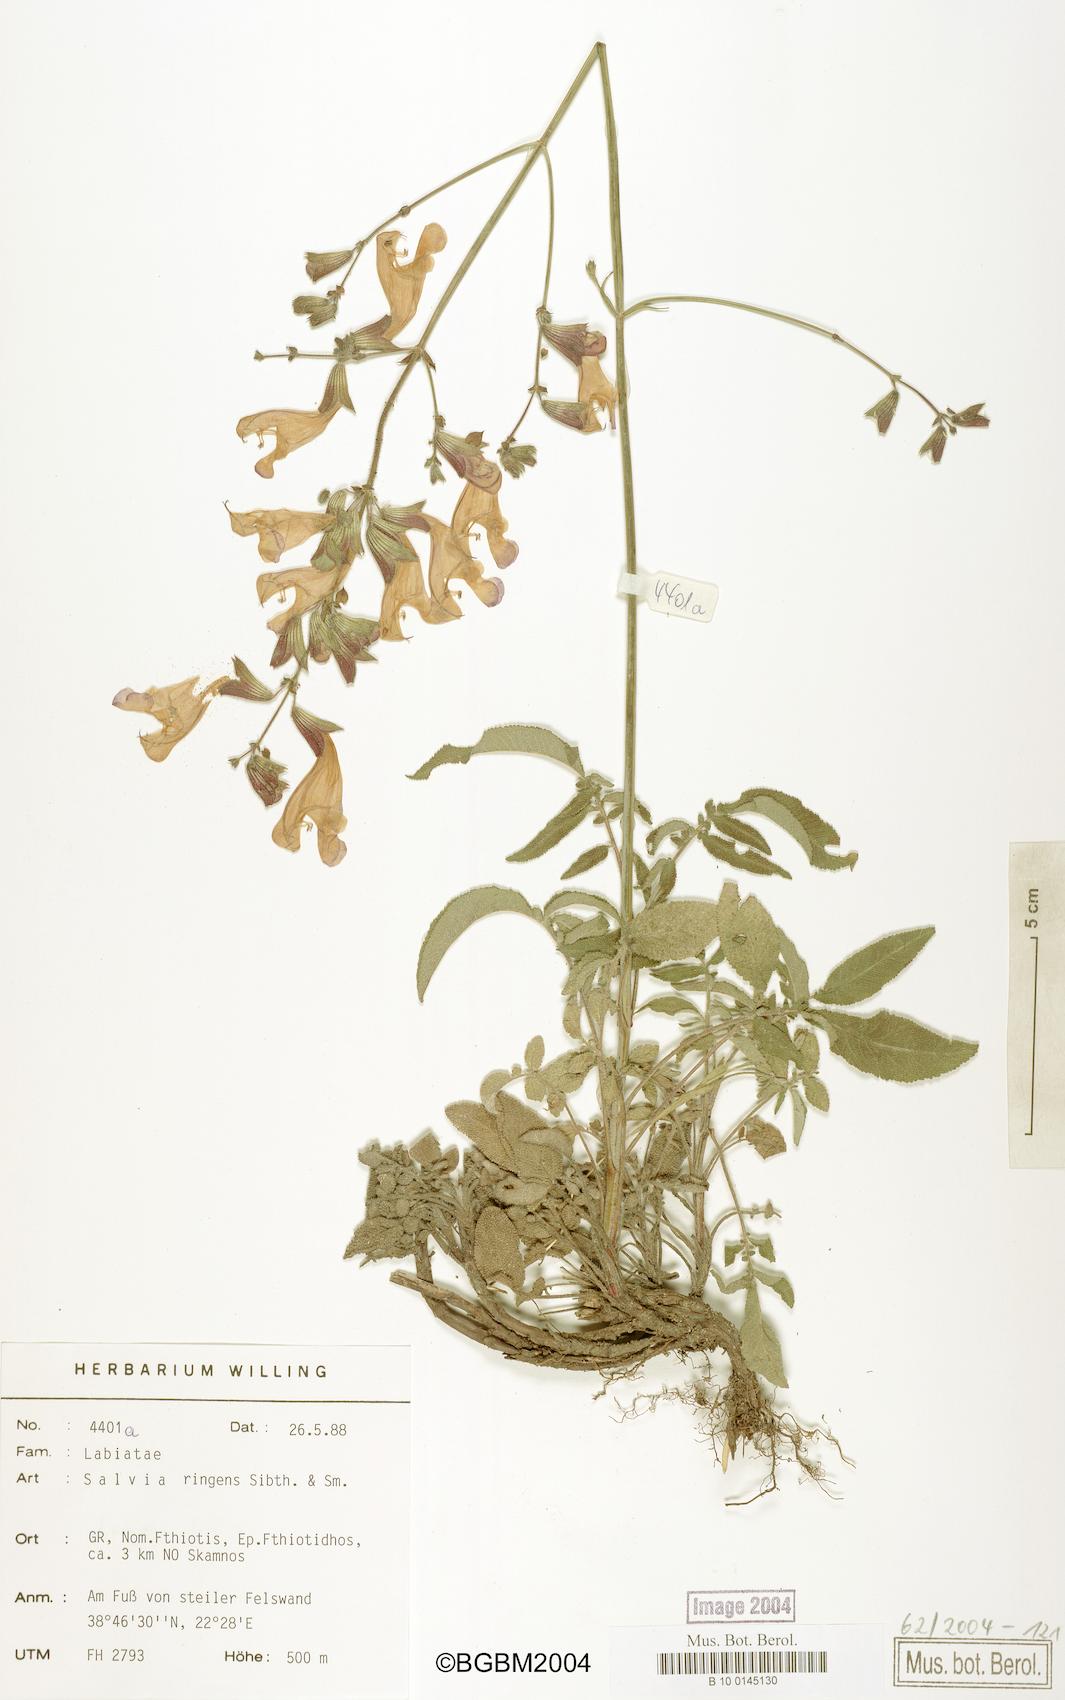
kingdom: Plantae
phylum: Tracheophyta
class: Magnoliopsida
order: Lamiales
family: Lamiaceae
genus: Salvia
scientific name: Salvia ringens
